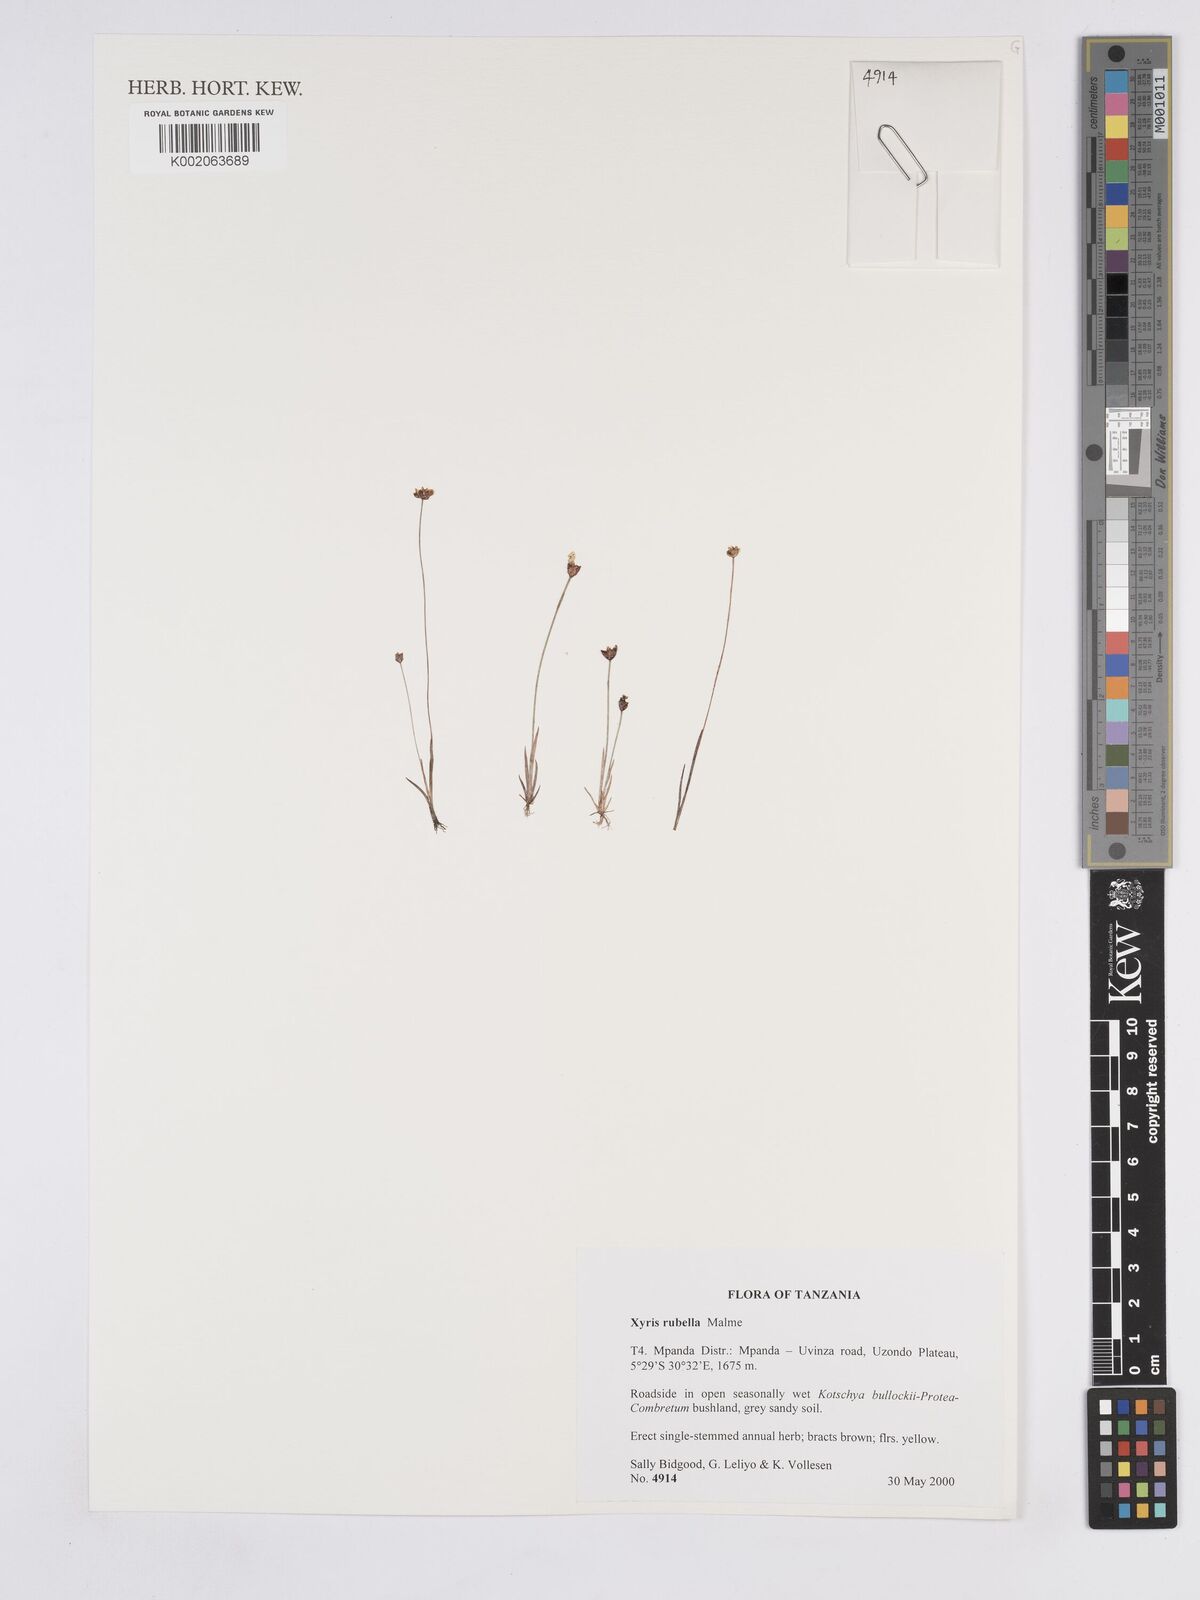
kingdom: Plantae
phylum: Tracheophyta
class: Liliopsida
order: Poales
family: Xyridaceae
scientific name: Xyridaceae
